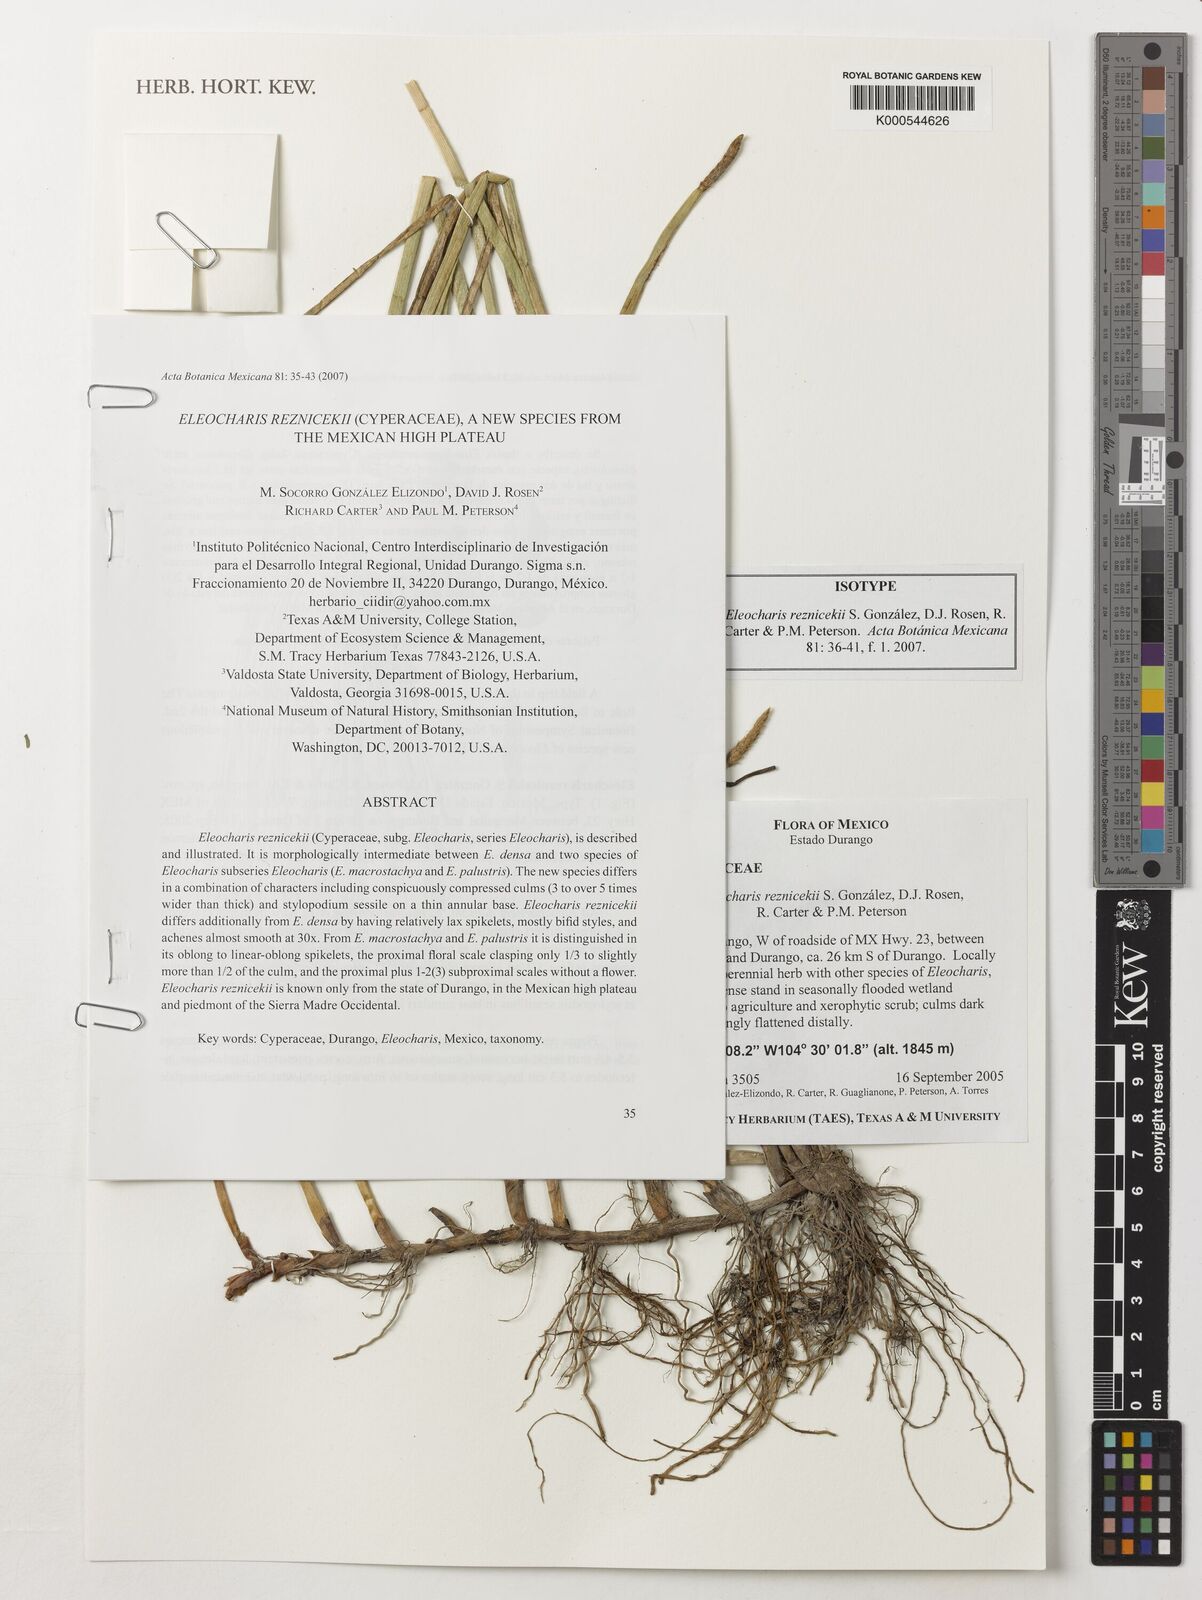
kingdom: Plantae
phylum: Tracheophyta
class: Liliopsida
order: Poales
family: Cyperaceae
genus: Eleocharis
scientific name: Eleocharis reznicekii
